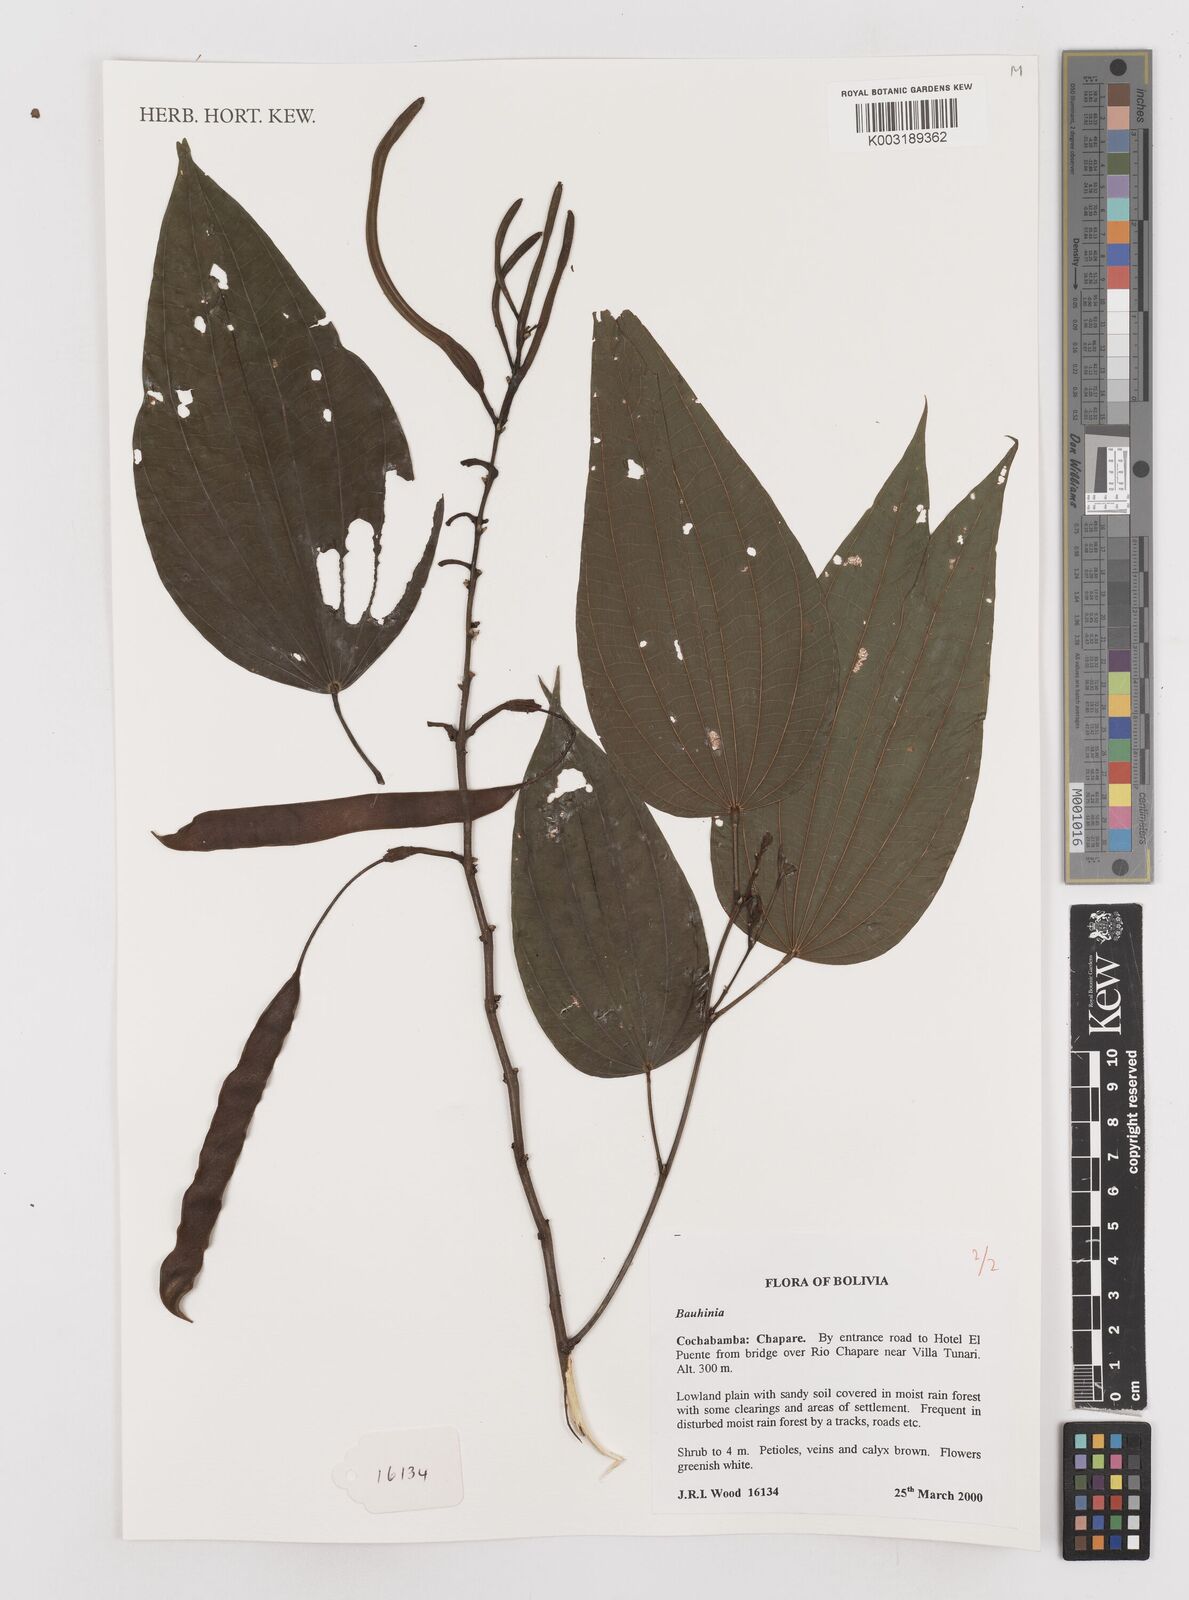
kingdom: Plantae
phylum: Tracheophyta
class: Magnoliopsida
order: Fabales
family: Fabaceae
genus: Bauhinia
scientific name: Bauhinia
